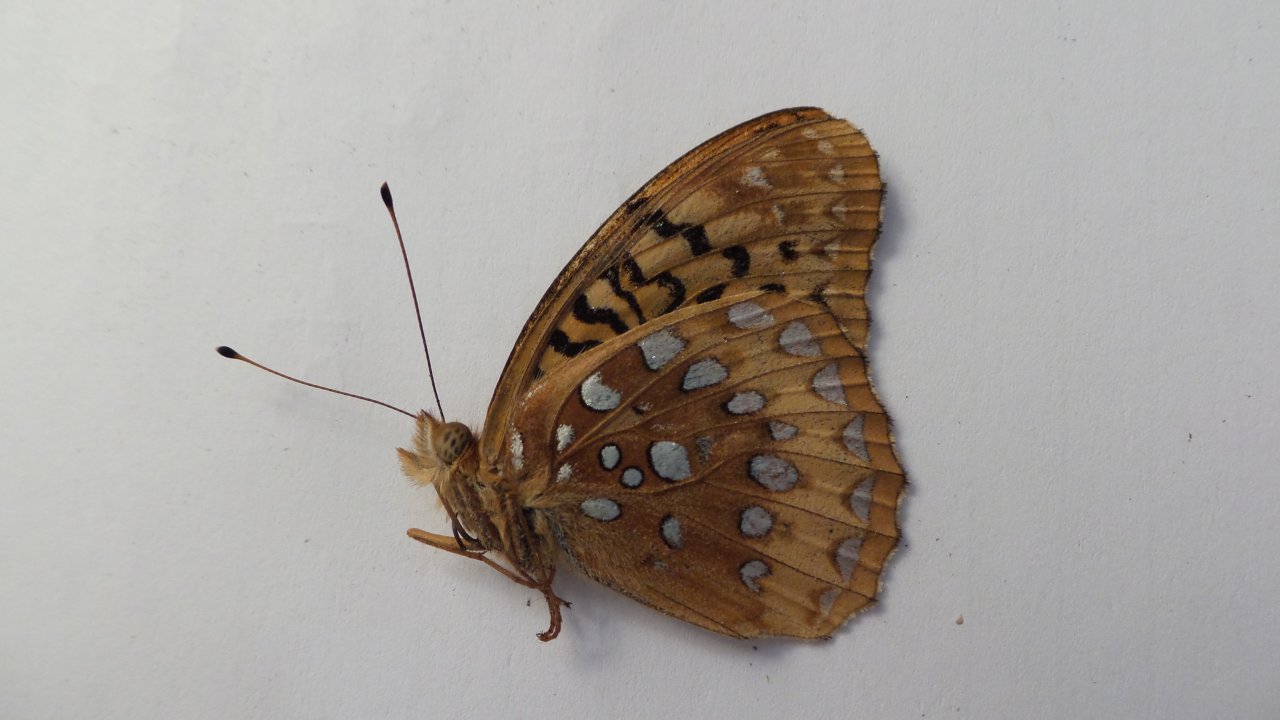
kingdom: Animalia
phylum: Arthropoda
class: Insecta
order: Lepidoptera
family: Nymphalidae
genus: Speyeria
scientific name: Speyeria cybele
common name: Great Spangled Fritillary
